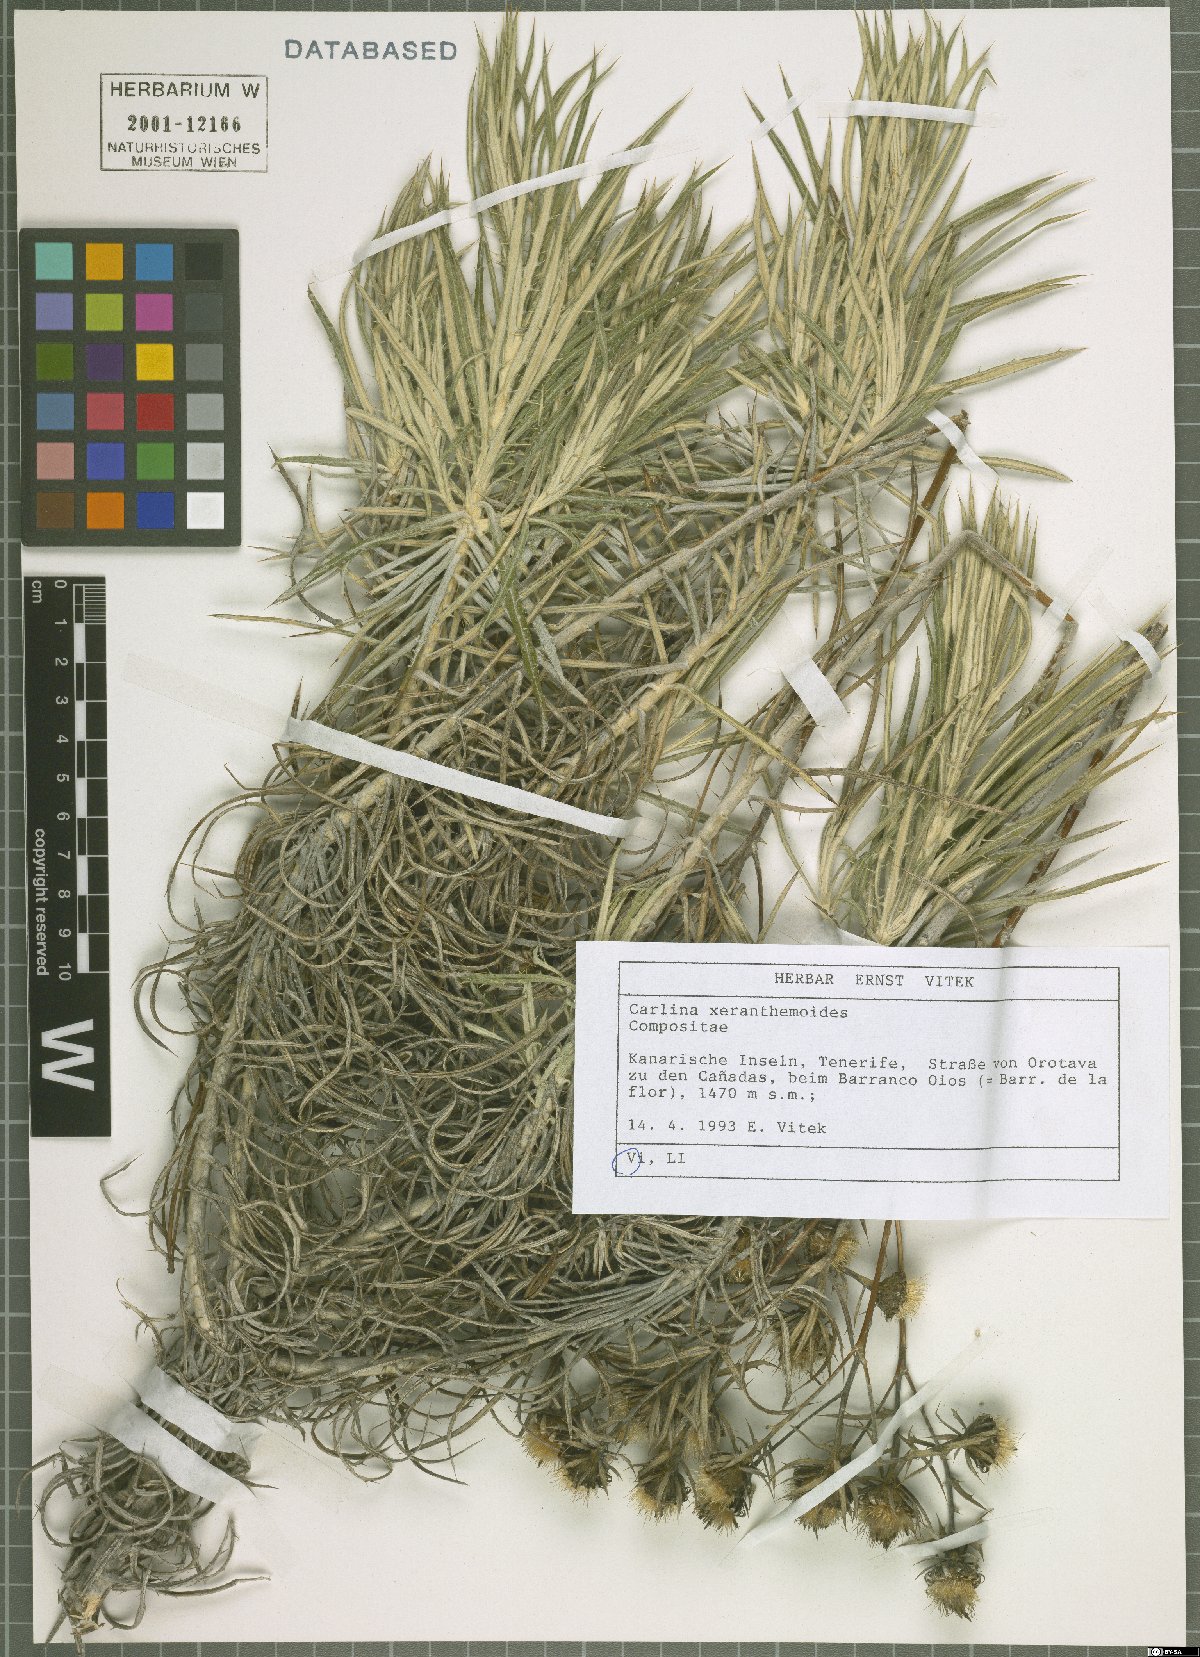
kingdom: Plantae
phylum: Tracheophyta
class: Magnoliopsida
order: Asterales
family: Asteraceae
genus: Carlina
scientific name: Carlina xeranthemoides
